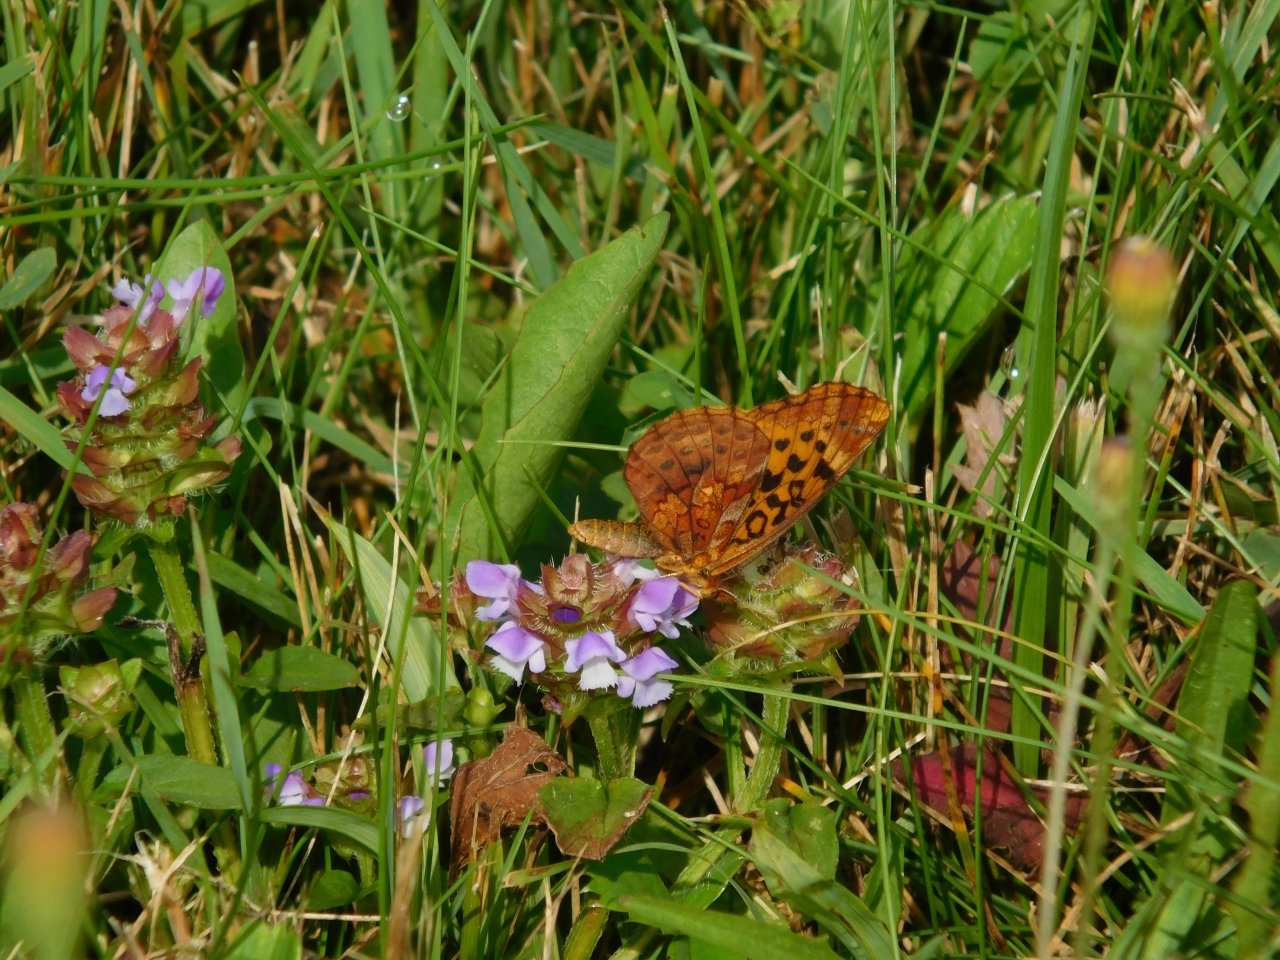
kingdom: Animalia
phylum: Arthropoda
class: Insecta
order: Lepidoptera
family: Nymphalidae
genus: Clossiana
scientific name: Clossiana toddi
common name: Meadow Fritillary
